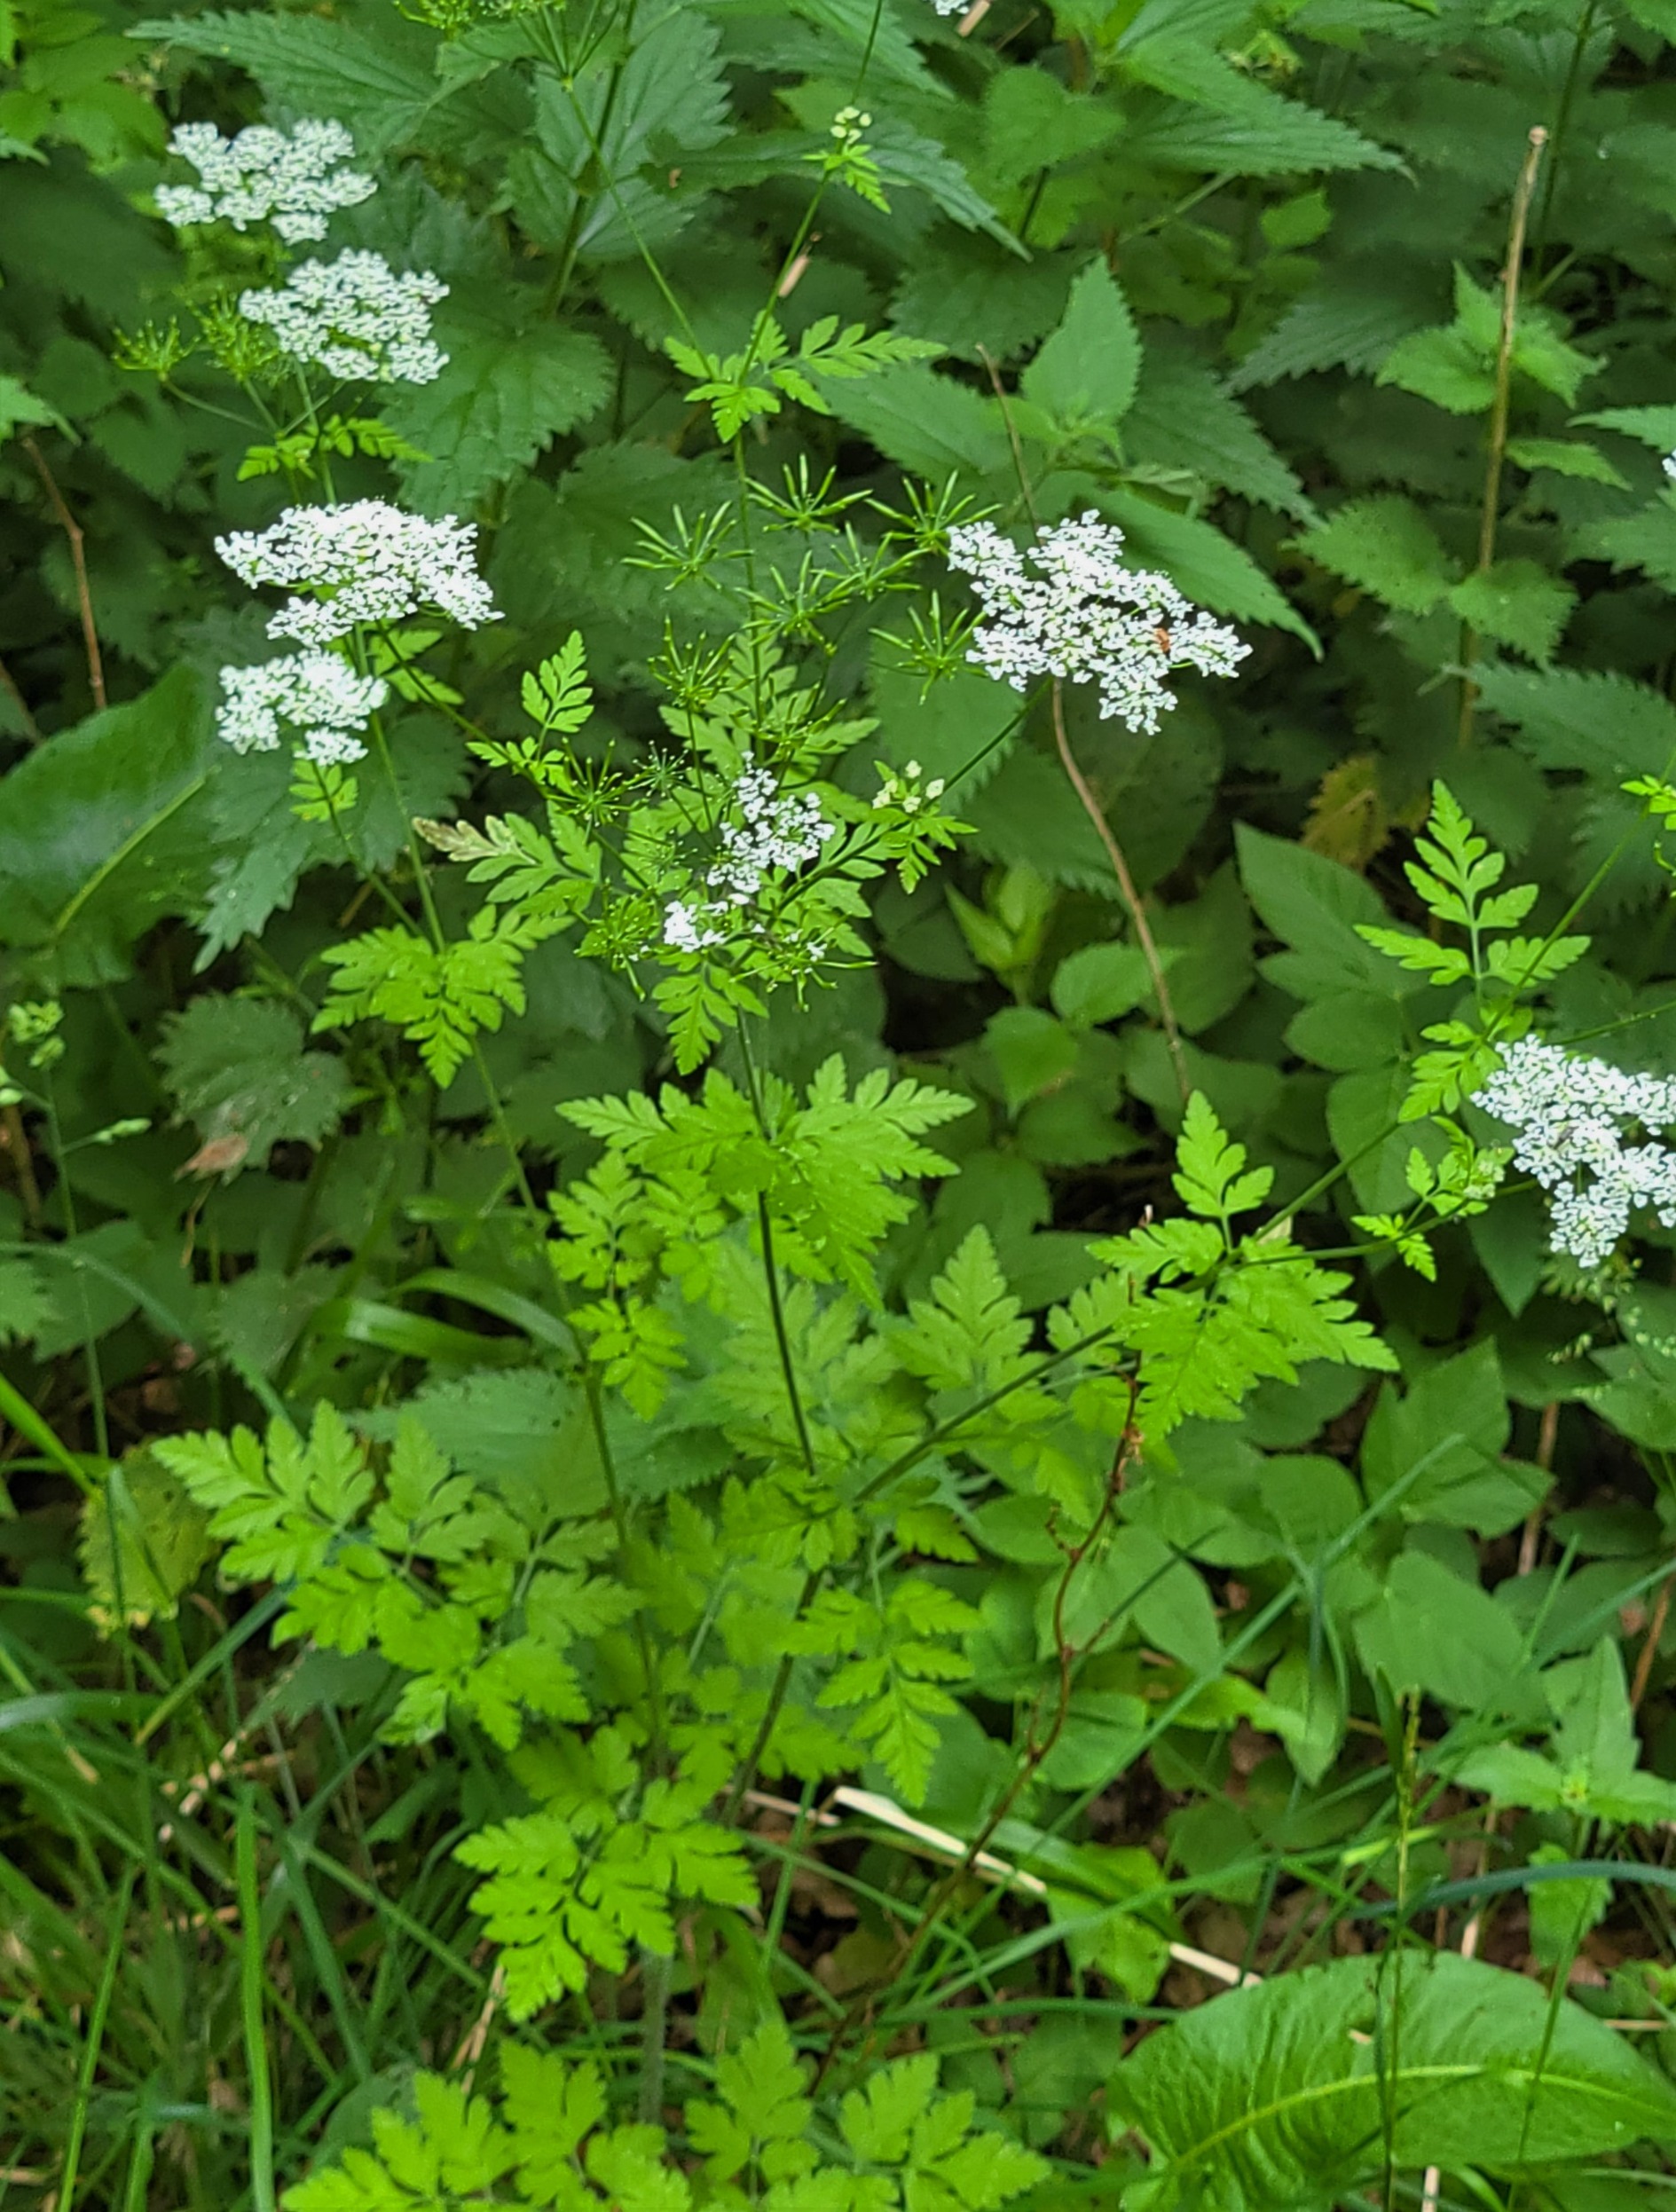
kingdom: Plantae
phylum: Tracheophyta
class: Magnoliopsida
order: Apiales
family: Apiaceae
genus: Chaerophyllum
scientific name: Chaerophyllum temulum
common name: Almindelig hulsvøb
